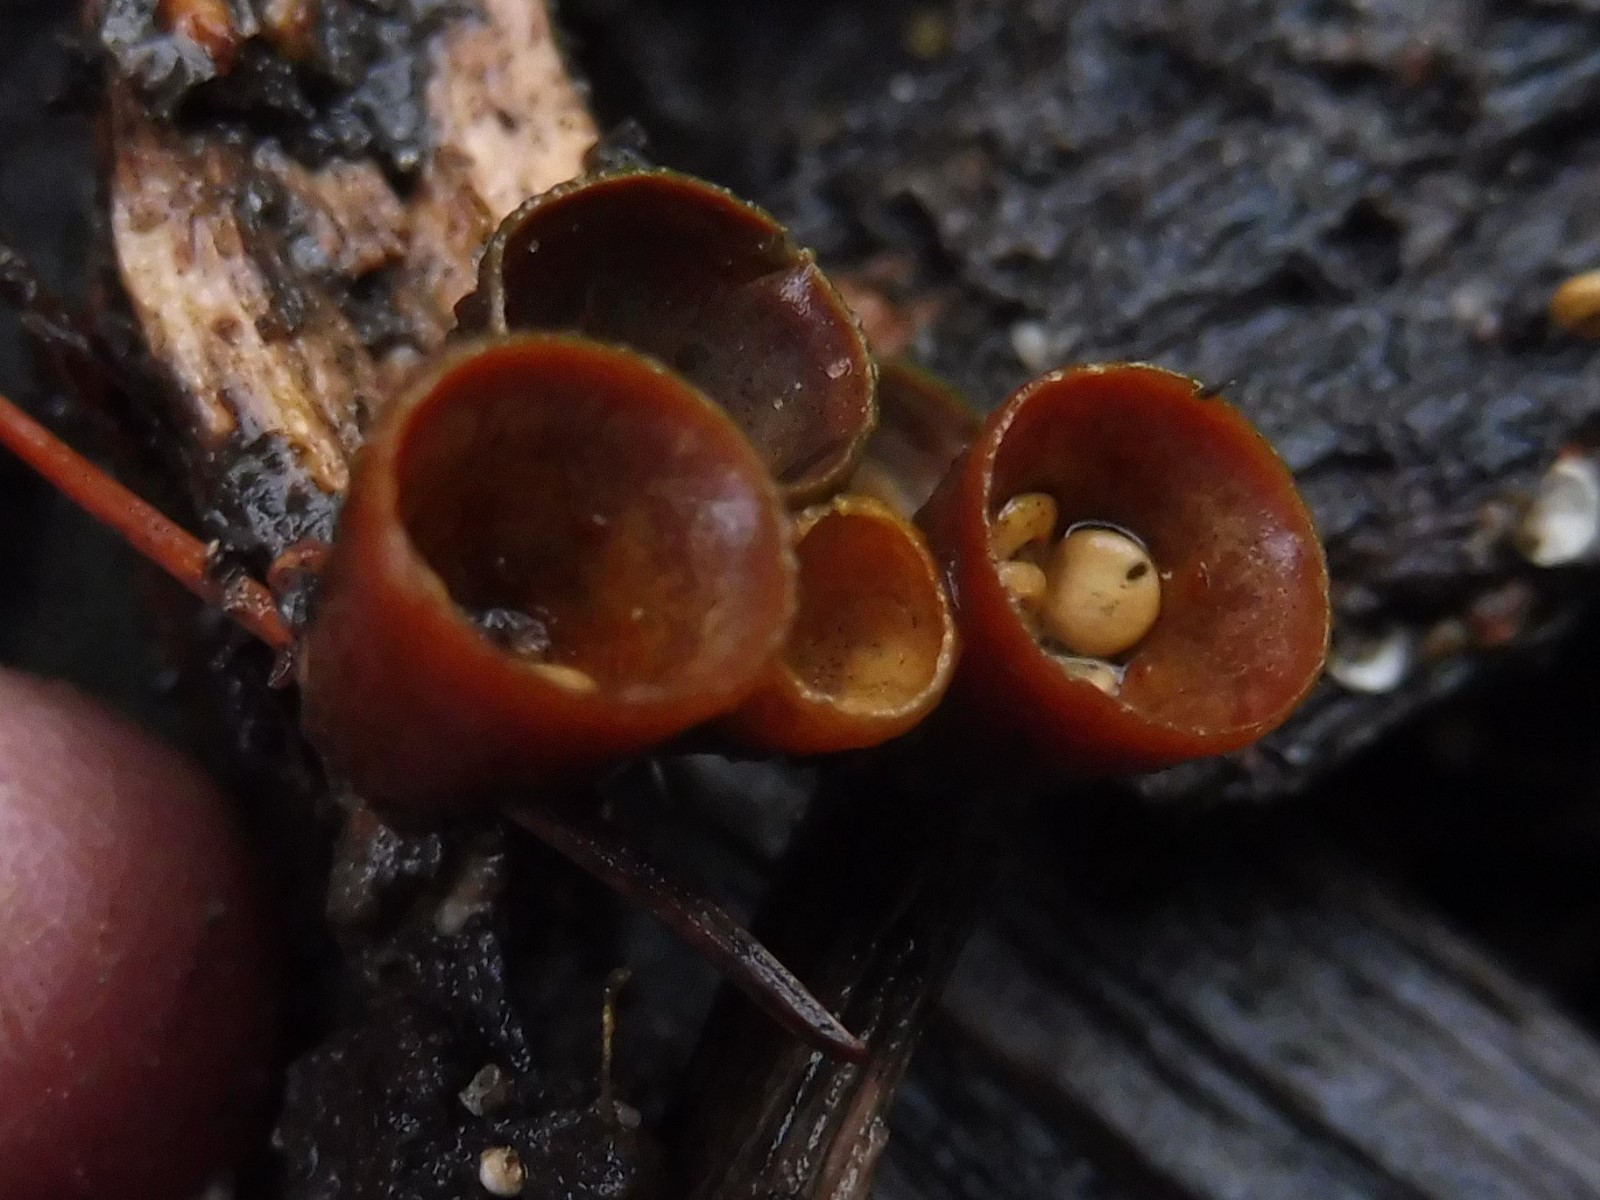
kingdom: Fungi
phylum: Basidiomycota
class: Agaricomycetes
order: Agaricales
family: Nidulariaceae
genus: Crucibulum
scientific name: Crucibulum crucibuliforme
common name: krukkesvamp
